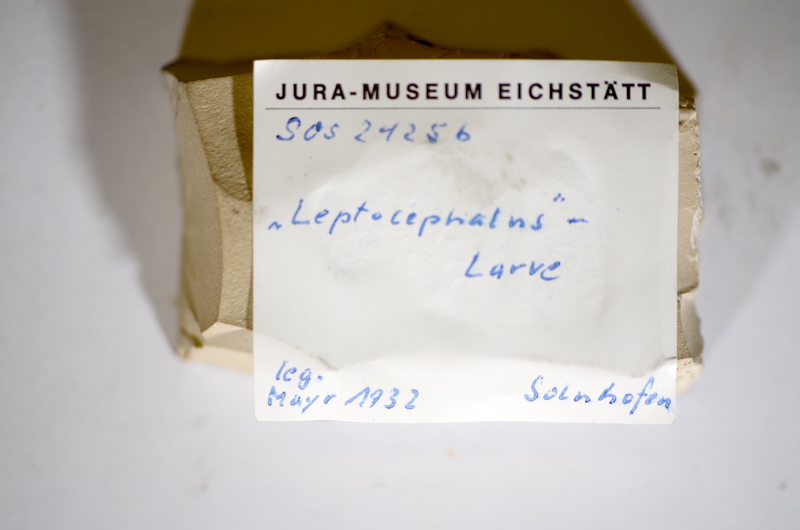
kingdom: Animalia
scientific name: Animalia
